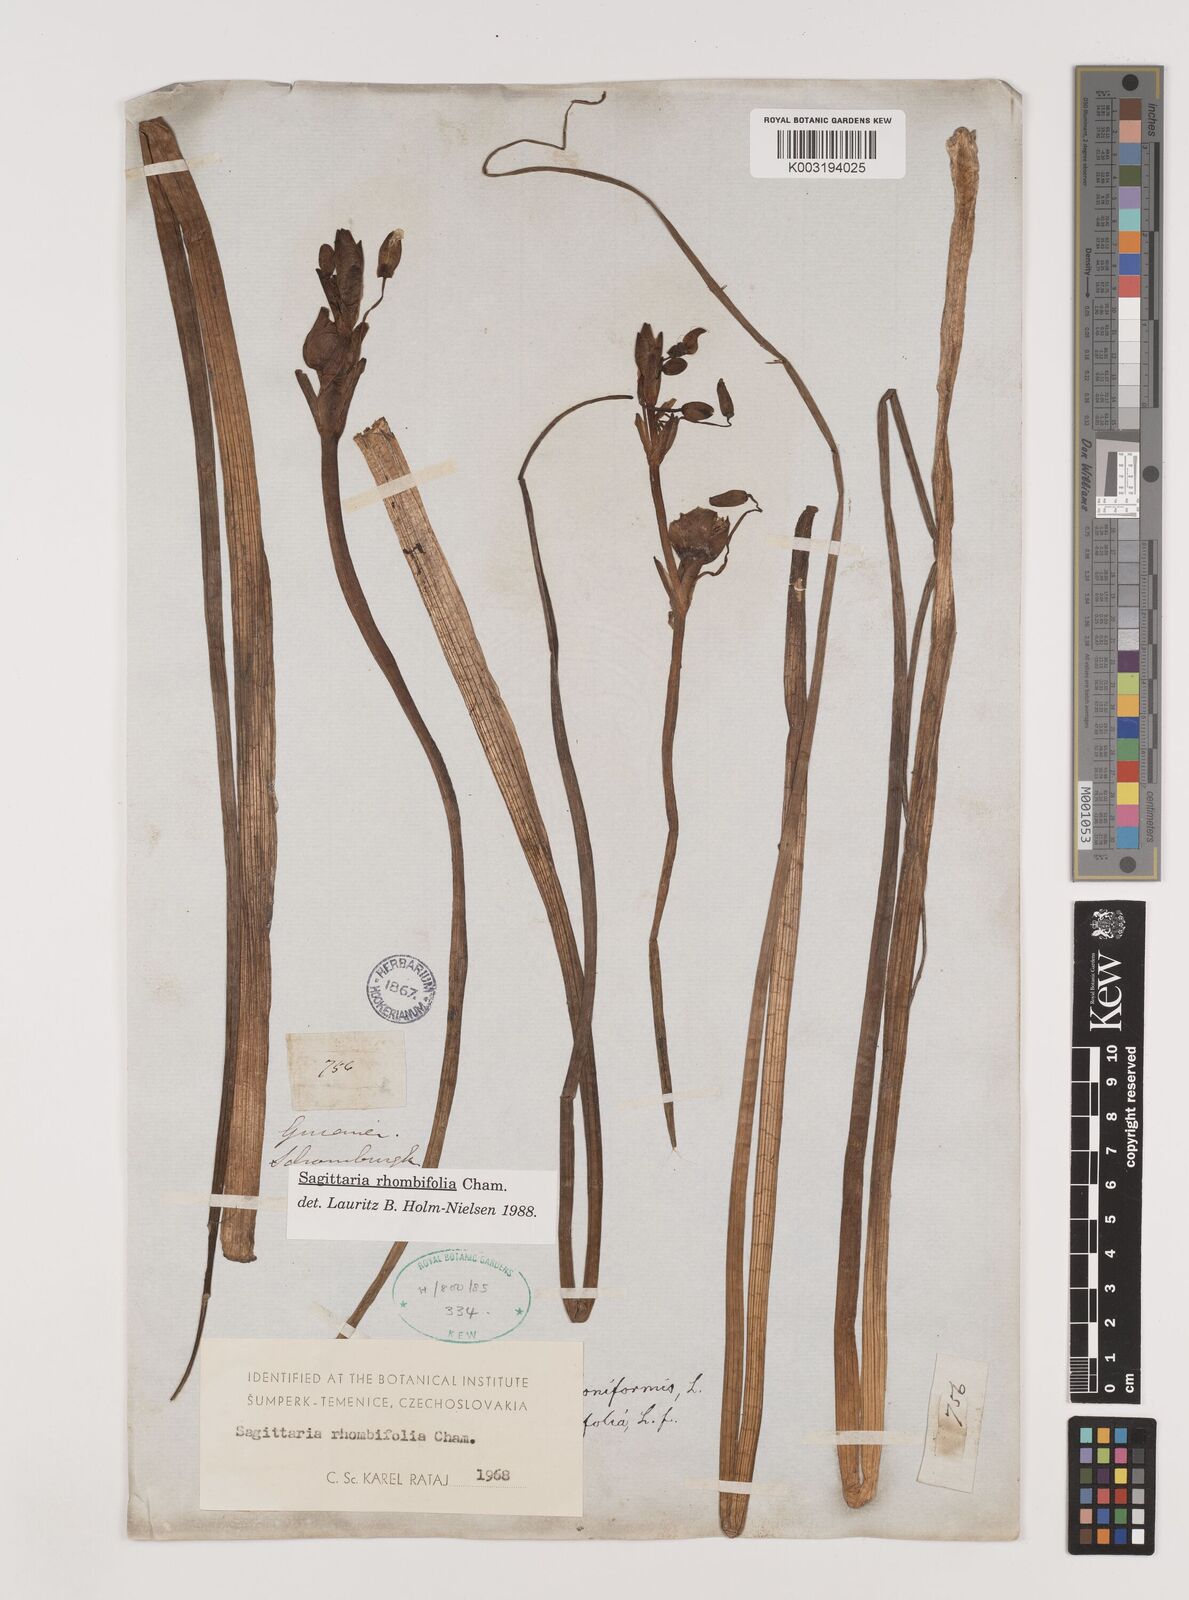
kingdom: Plantae
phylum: Tracheophyta
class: Liliopsida
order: Alismatales
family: Alismataceae
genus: Sagittaria
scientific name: Sagittaria rhombifolia
